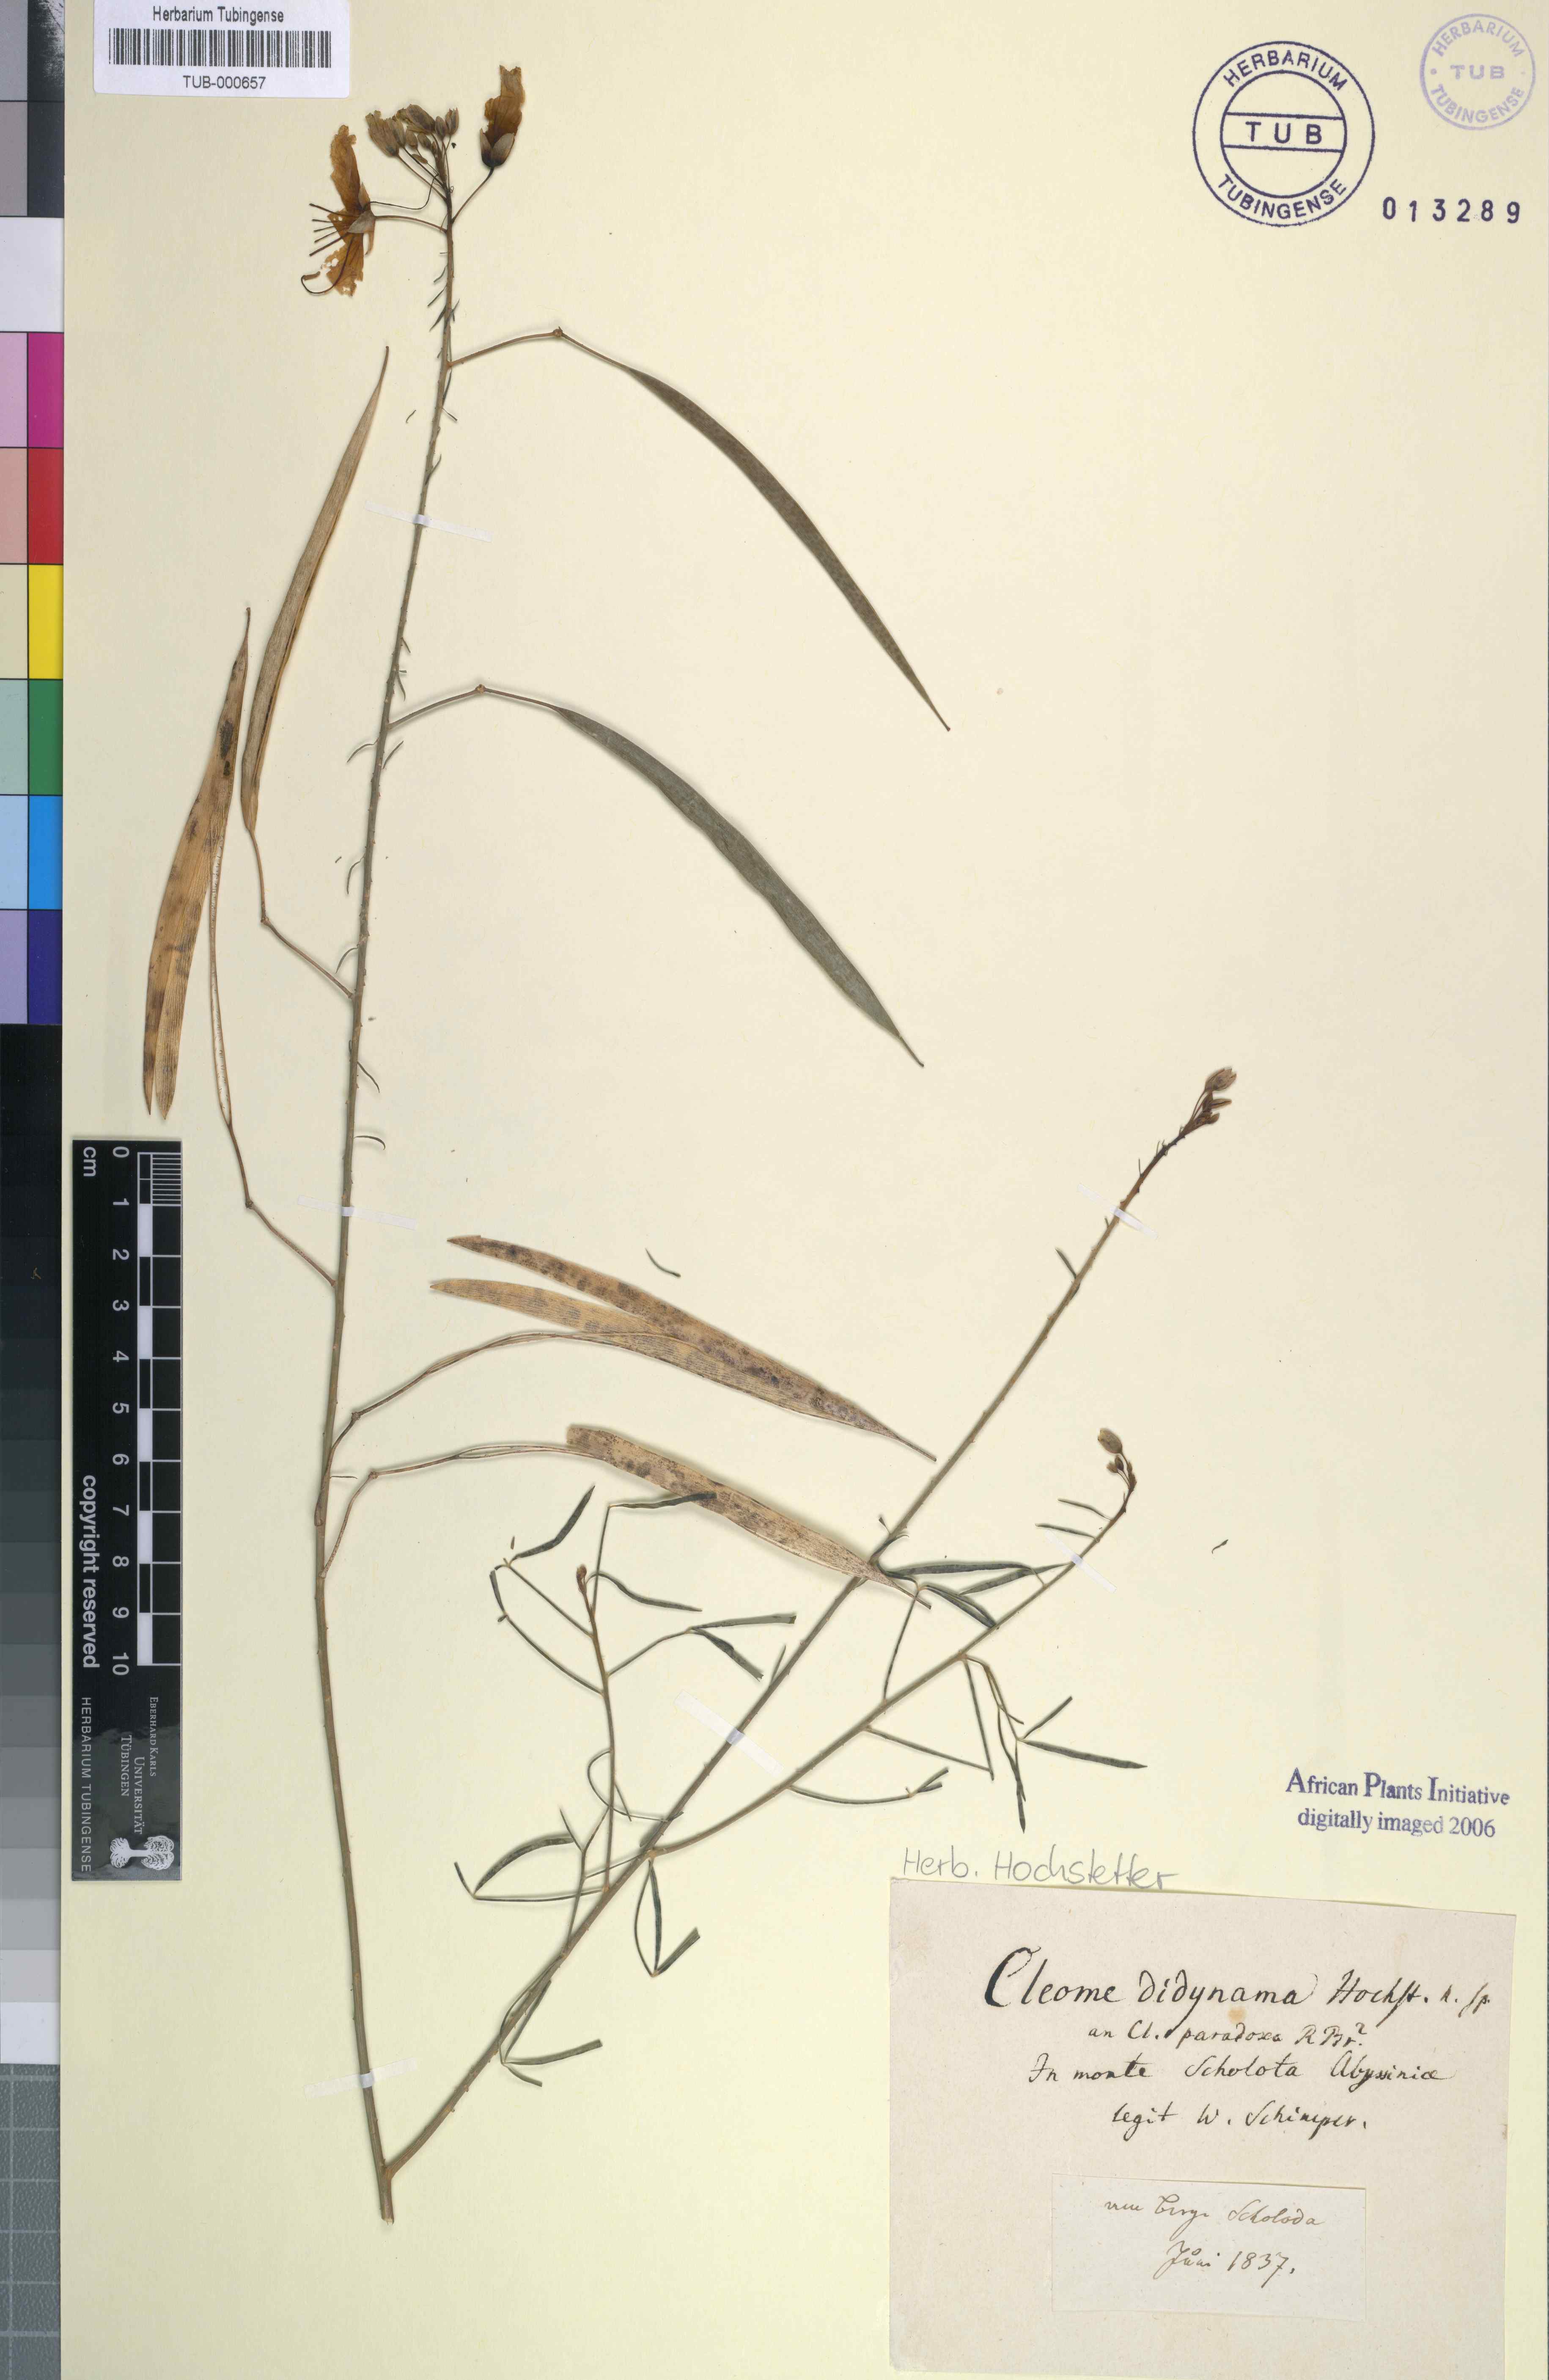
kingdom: Plantae
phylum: Tracheophyta
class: Magnoliopsida
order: Brassicales
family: Cleomaceae
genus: Coalisina
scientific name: Coalisina angustifolia
